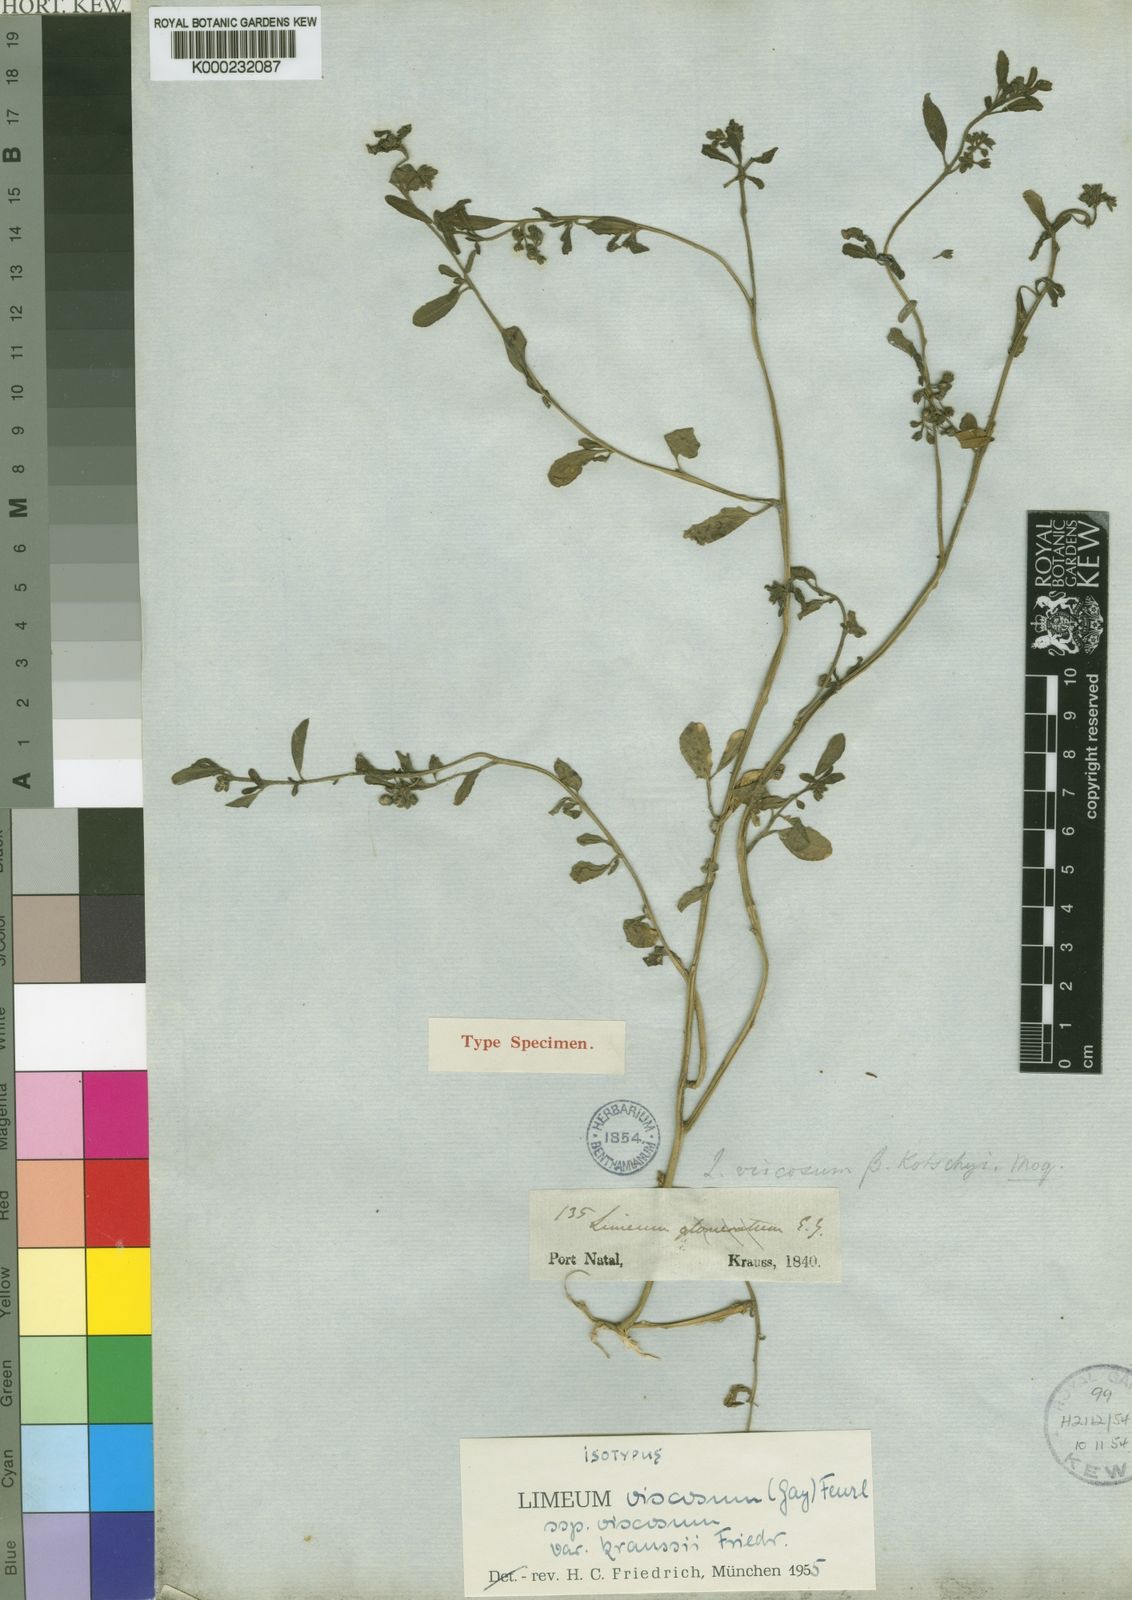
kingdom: Plantae
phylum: Tracheophyta
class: Magnoliopsida
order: Caryophyllales
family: Limeaceae
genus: Limeum
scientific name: Limeum viscosum
